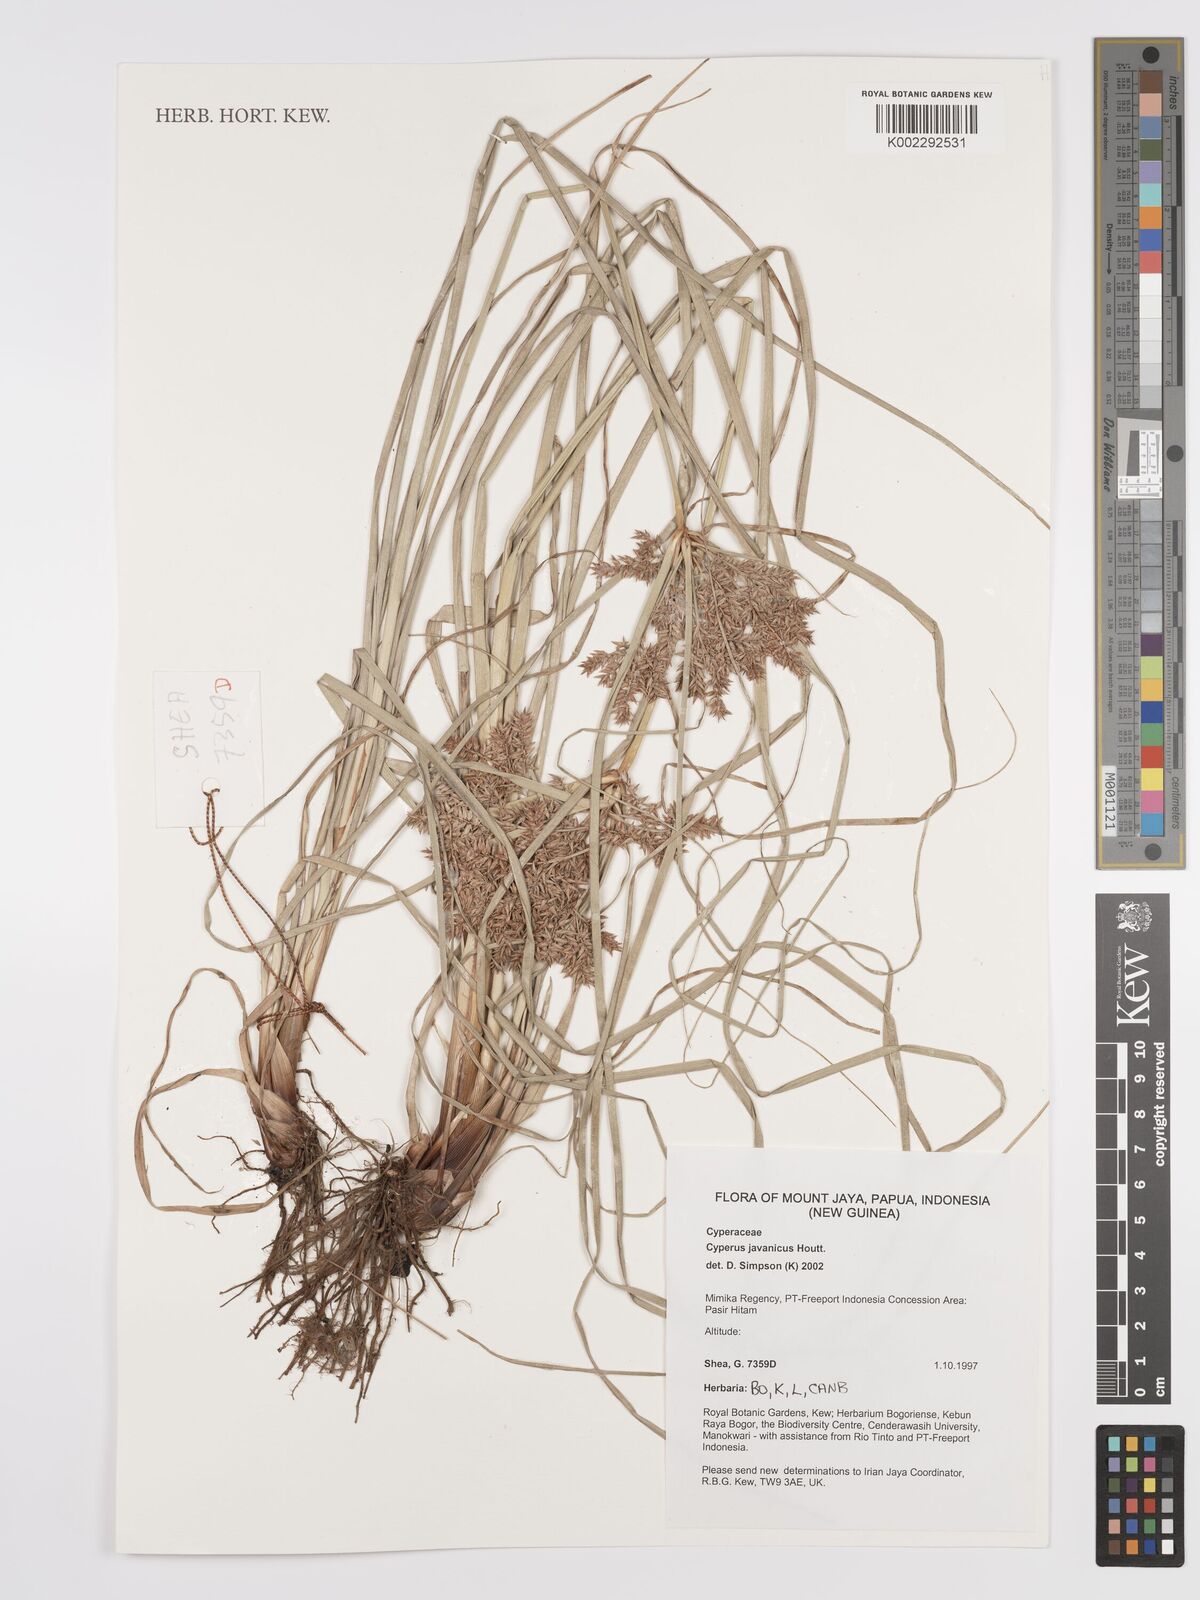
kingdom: Plantae
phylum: Tracheophyta
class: Liliopsida
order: Poales
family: Cyperaceae
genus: Cyperus
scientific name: Cyperus
